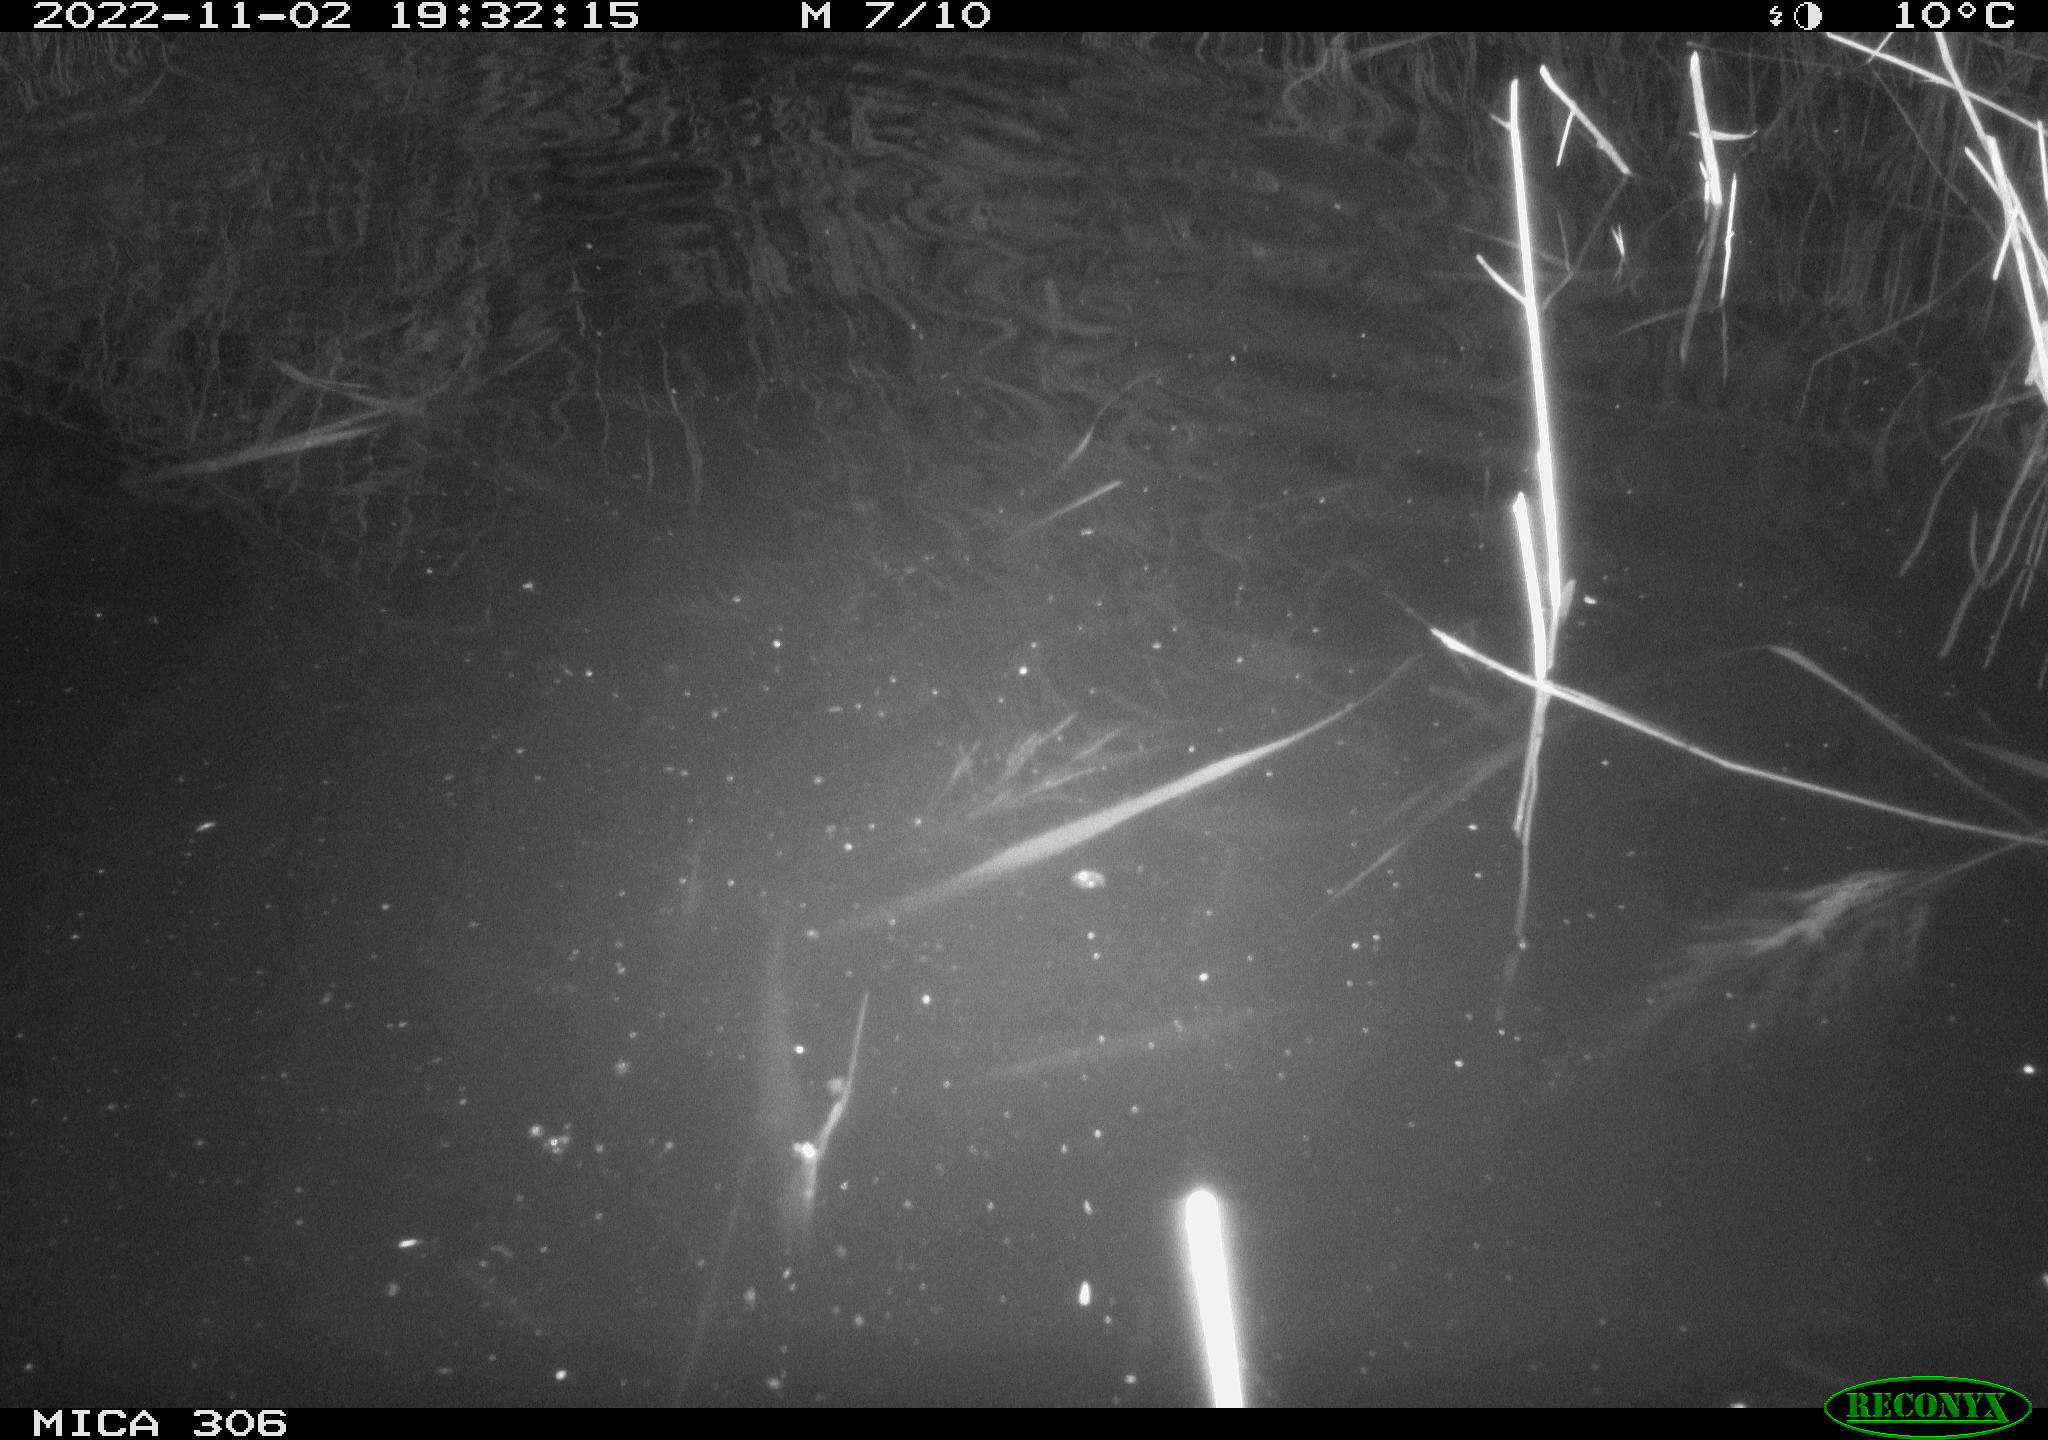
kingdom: Animalia
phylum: Chordata
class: Mammalia
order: Rodentia
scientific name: Rodentia
